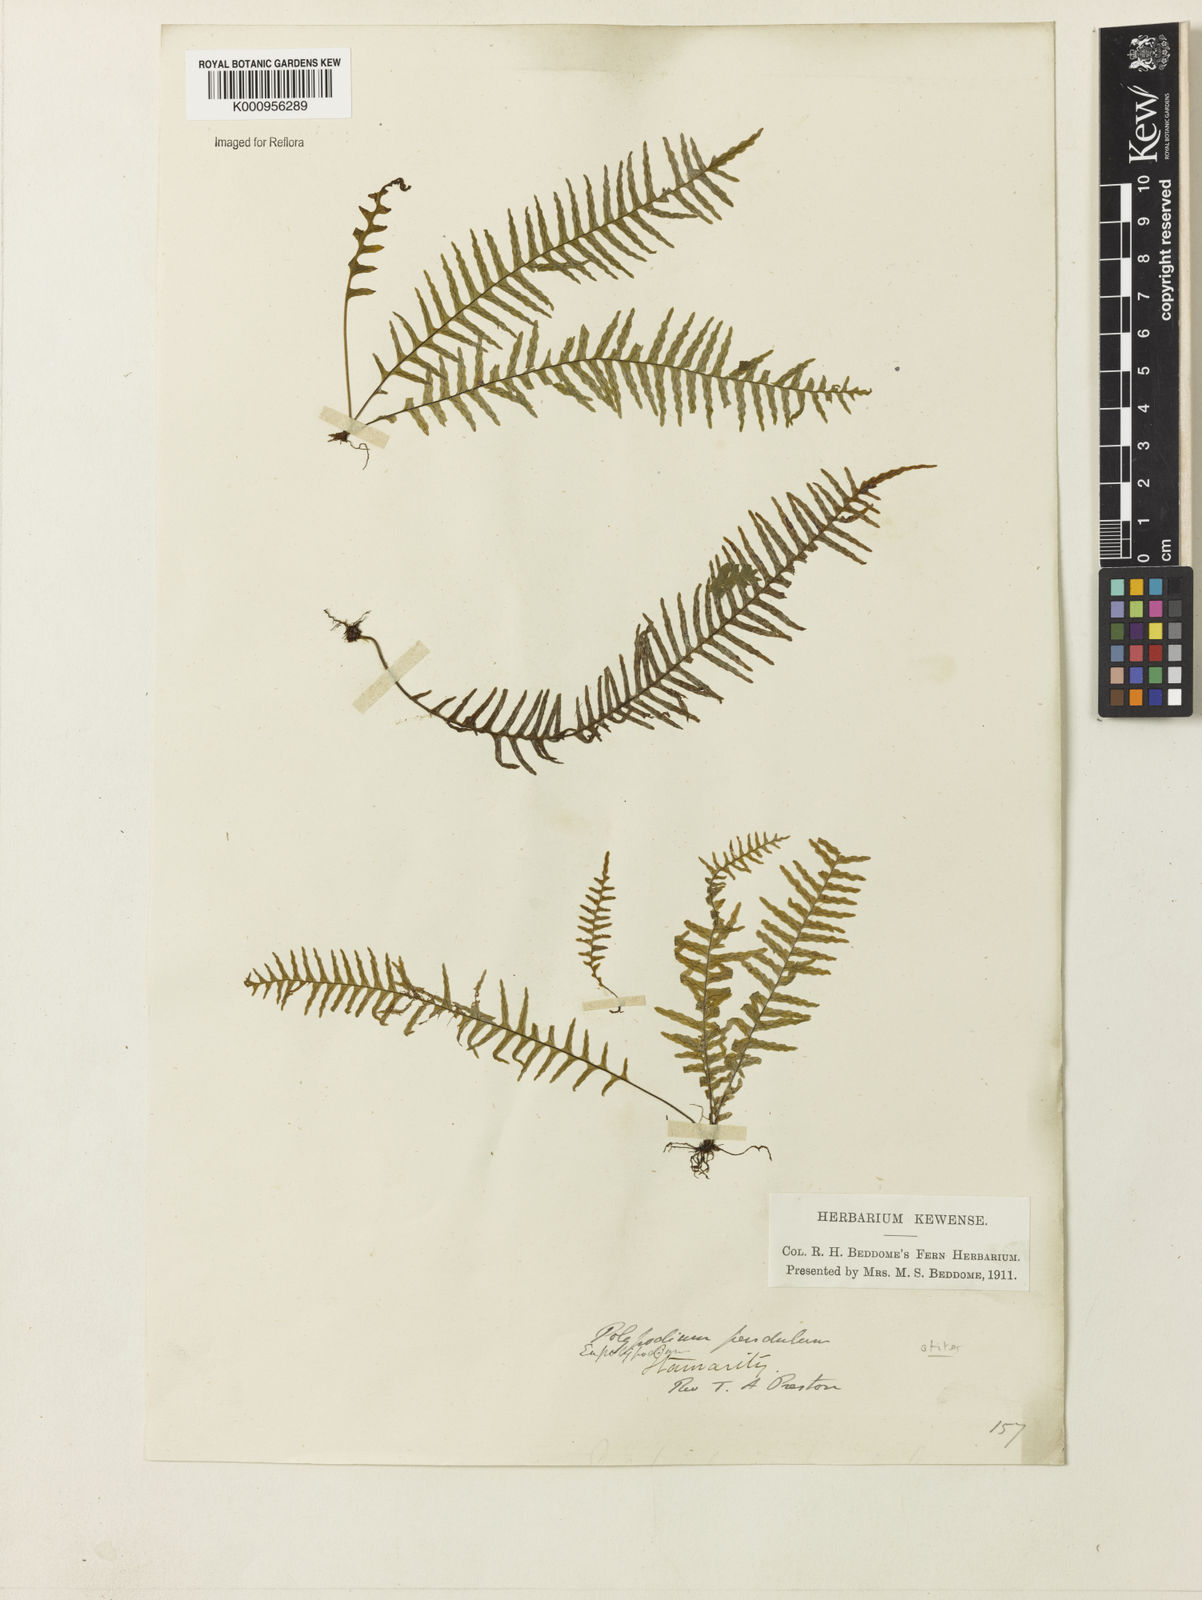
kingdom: Plantae
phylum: Tracheophyta
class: Polypodiopsida
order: Polypodiales
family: Polypodiaceae
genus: Polypodium
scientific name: Polypodium otites
